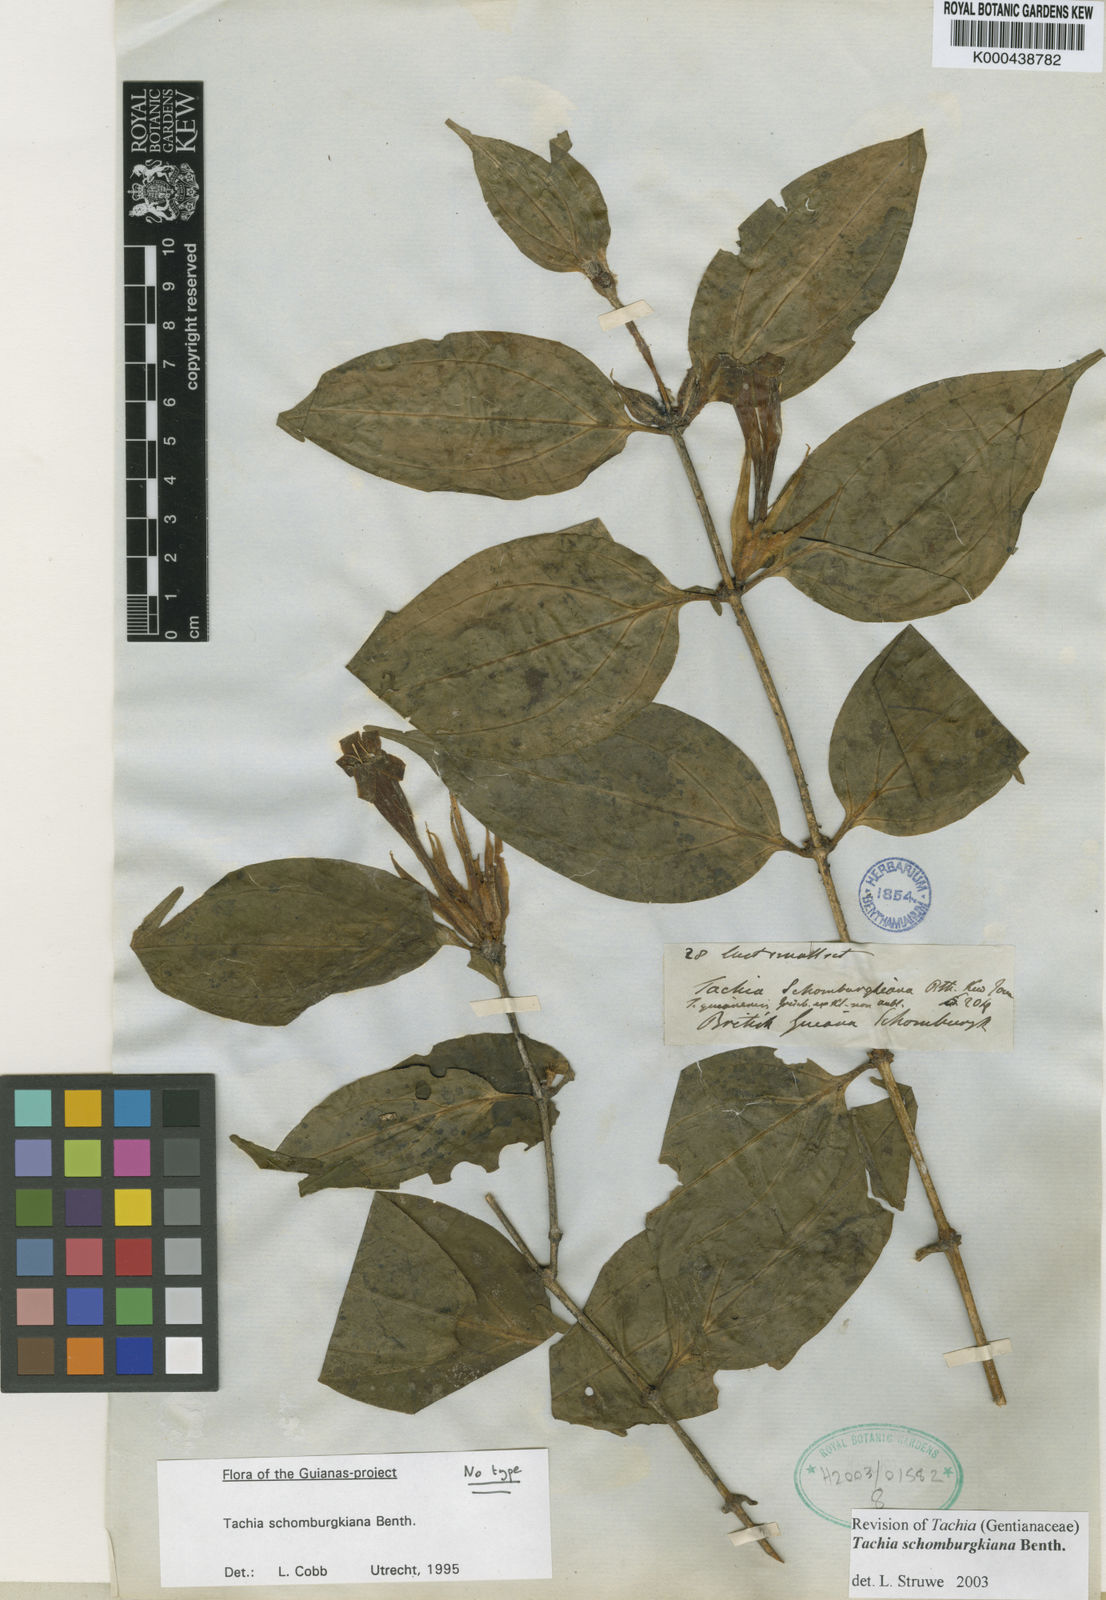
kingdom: Plantae
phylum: Tracheophyta
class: Magnoliopsida
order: Gentianales
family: Gentianaceae
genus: Tachia
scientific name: Tachia schomburgkiana
